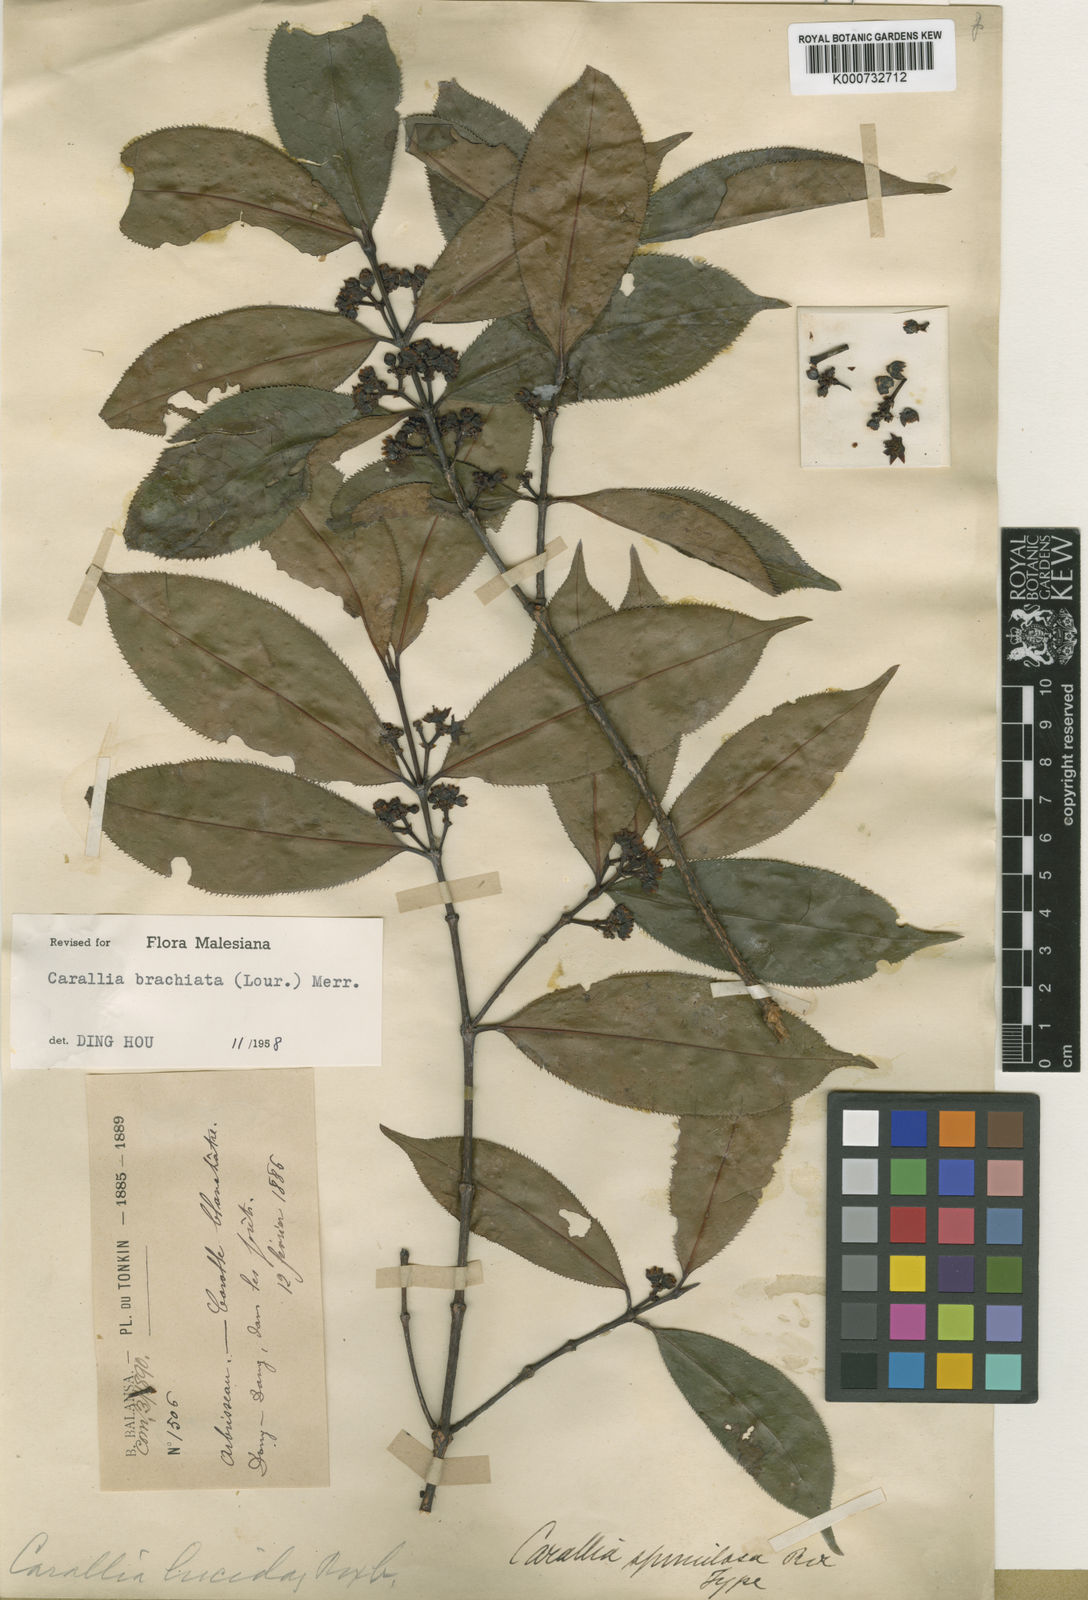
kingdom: Plantae
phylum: Tracheophyta
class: Magnoliopsida
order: Malpighiales
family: Rhizophoraceae
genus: Carallia
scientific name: Carallia brachiata
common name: Carallawood
